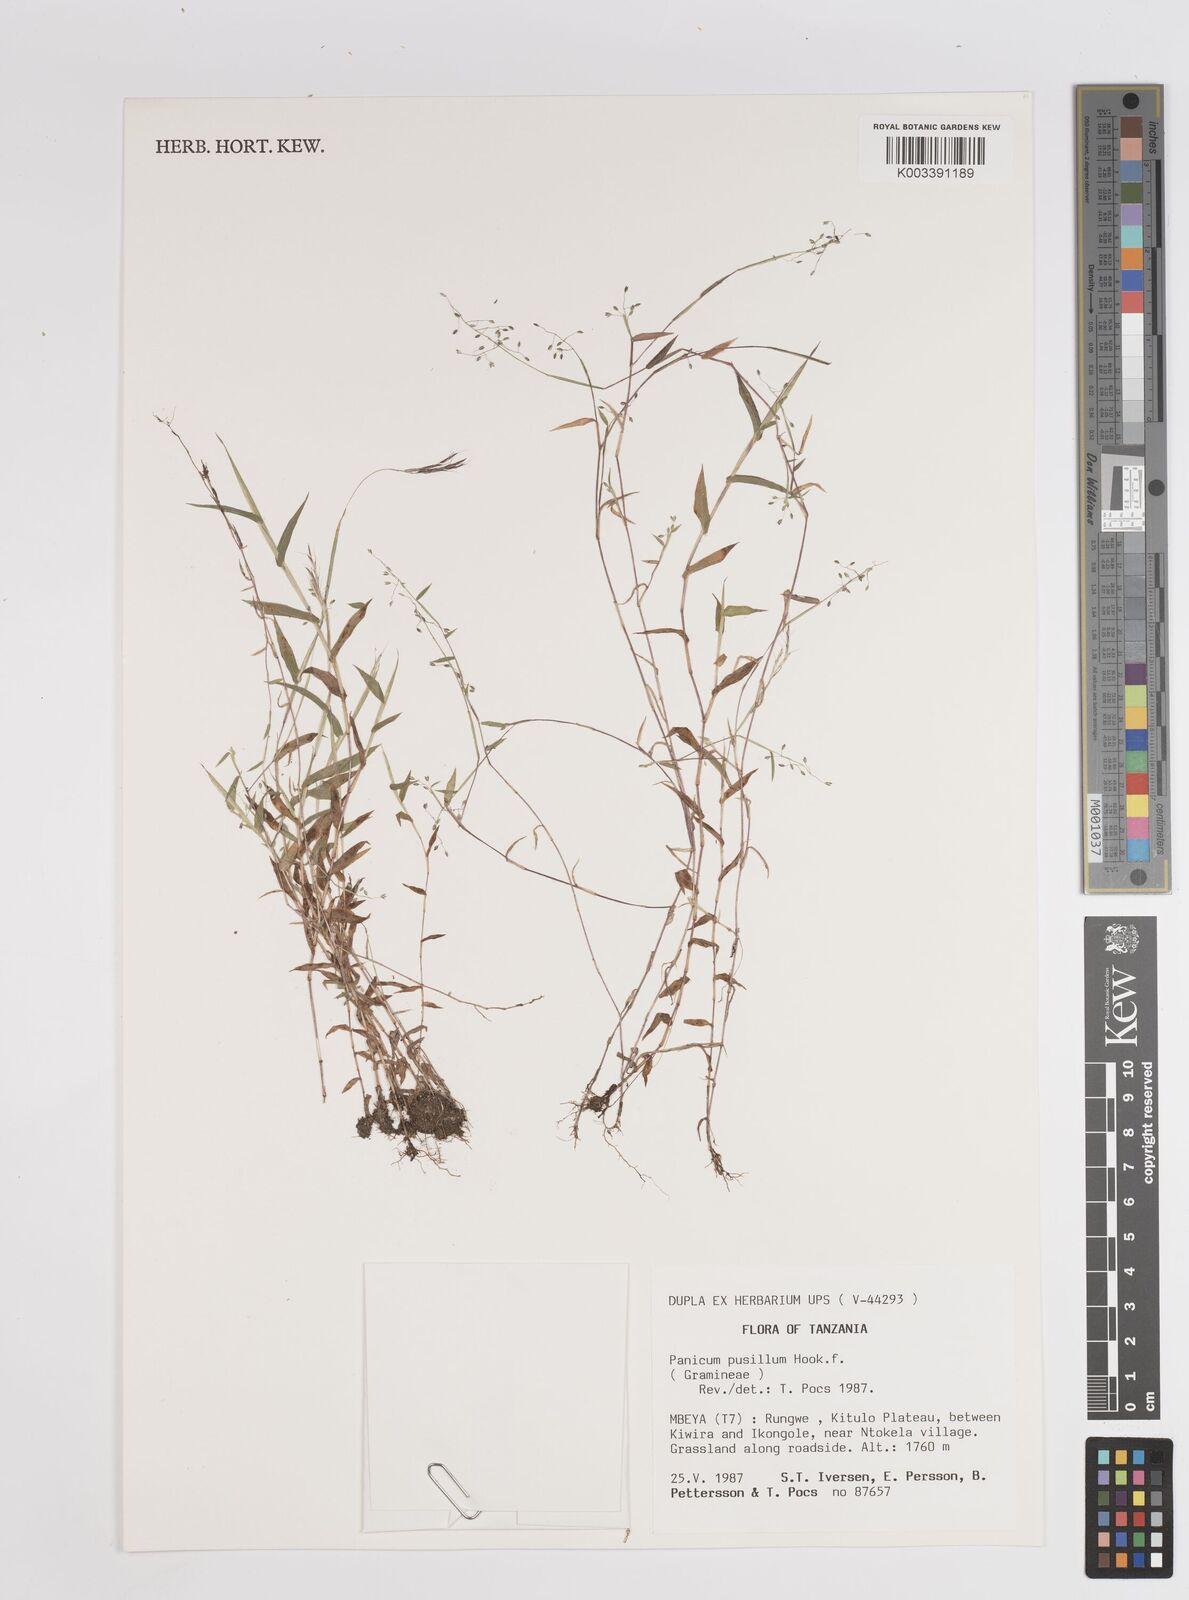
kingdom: Plantae
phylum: Tracheophyta
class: Liliopsida
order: Poales
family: Poaceae
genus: Panicum
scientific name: Panicum pusillum
